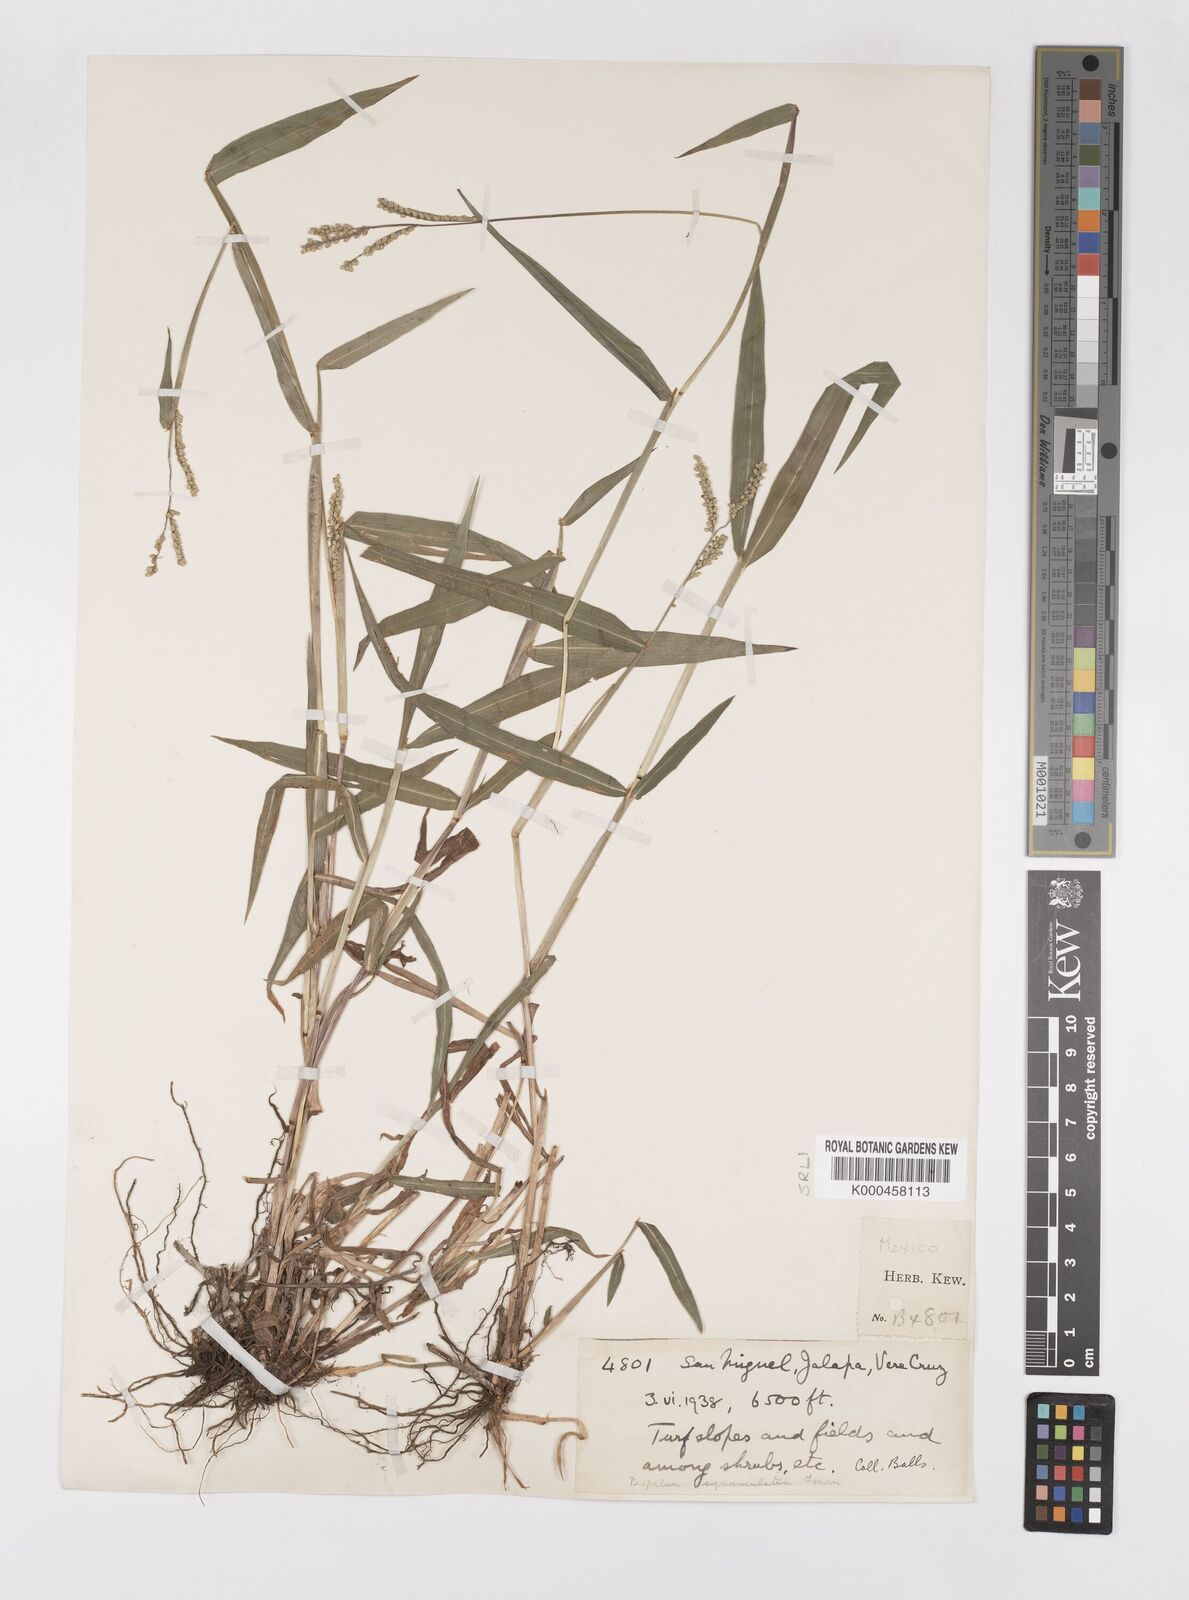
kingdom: Plantae
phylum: Tracheophyta
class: Liliopsida
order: Poales
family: Poaceae
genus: Paspalum
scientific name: Paspalum
